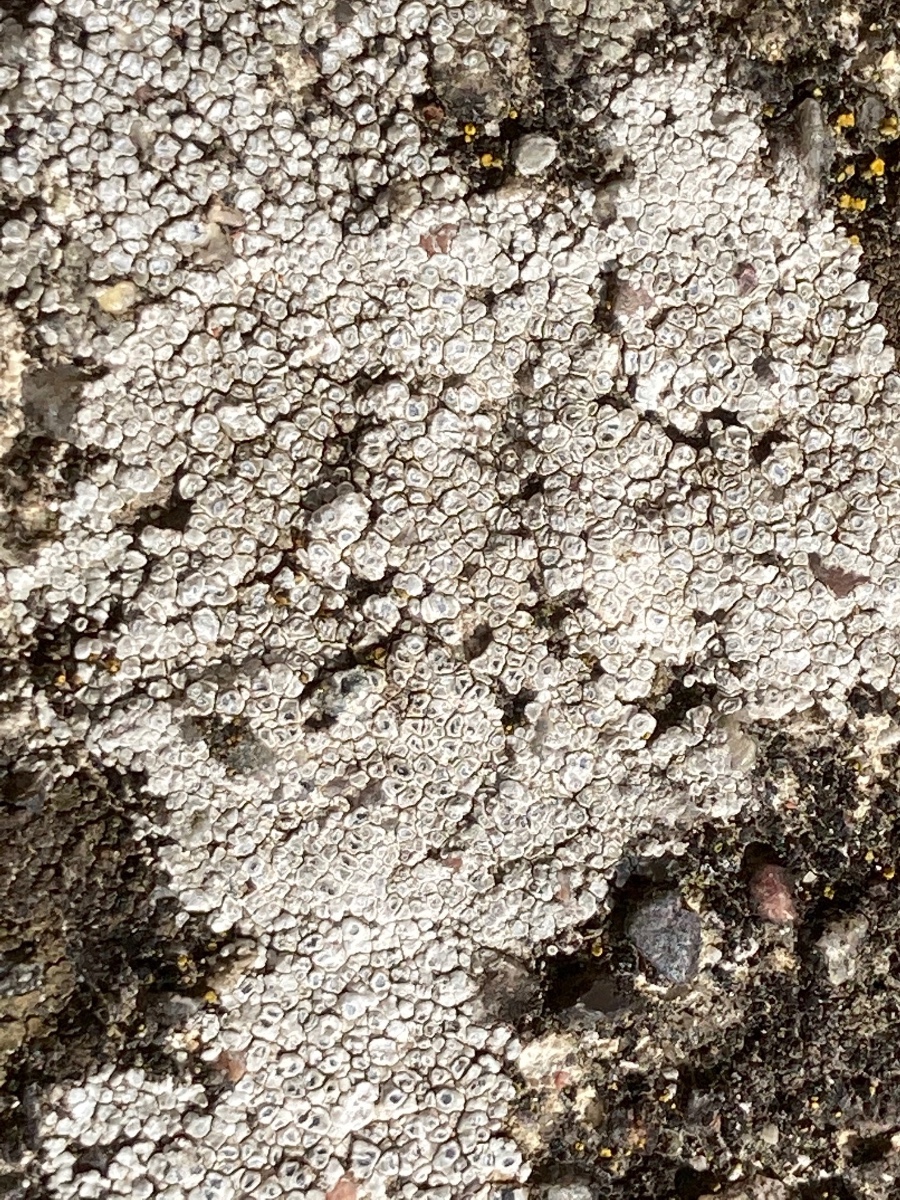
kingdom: Fungi
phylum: Ascomycota
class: Lecanoromycetes
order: Pertusariales
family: Megasporaceae
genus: Circinaria
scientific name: Circinaria contorta
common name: indviklet hulskivelav
